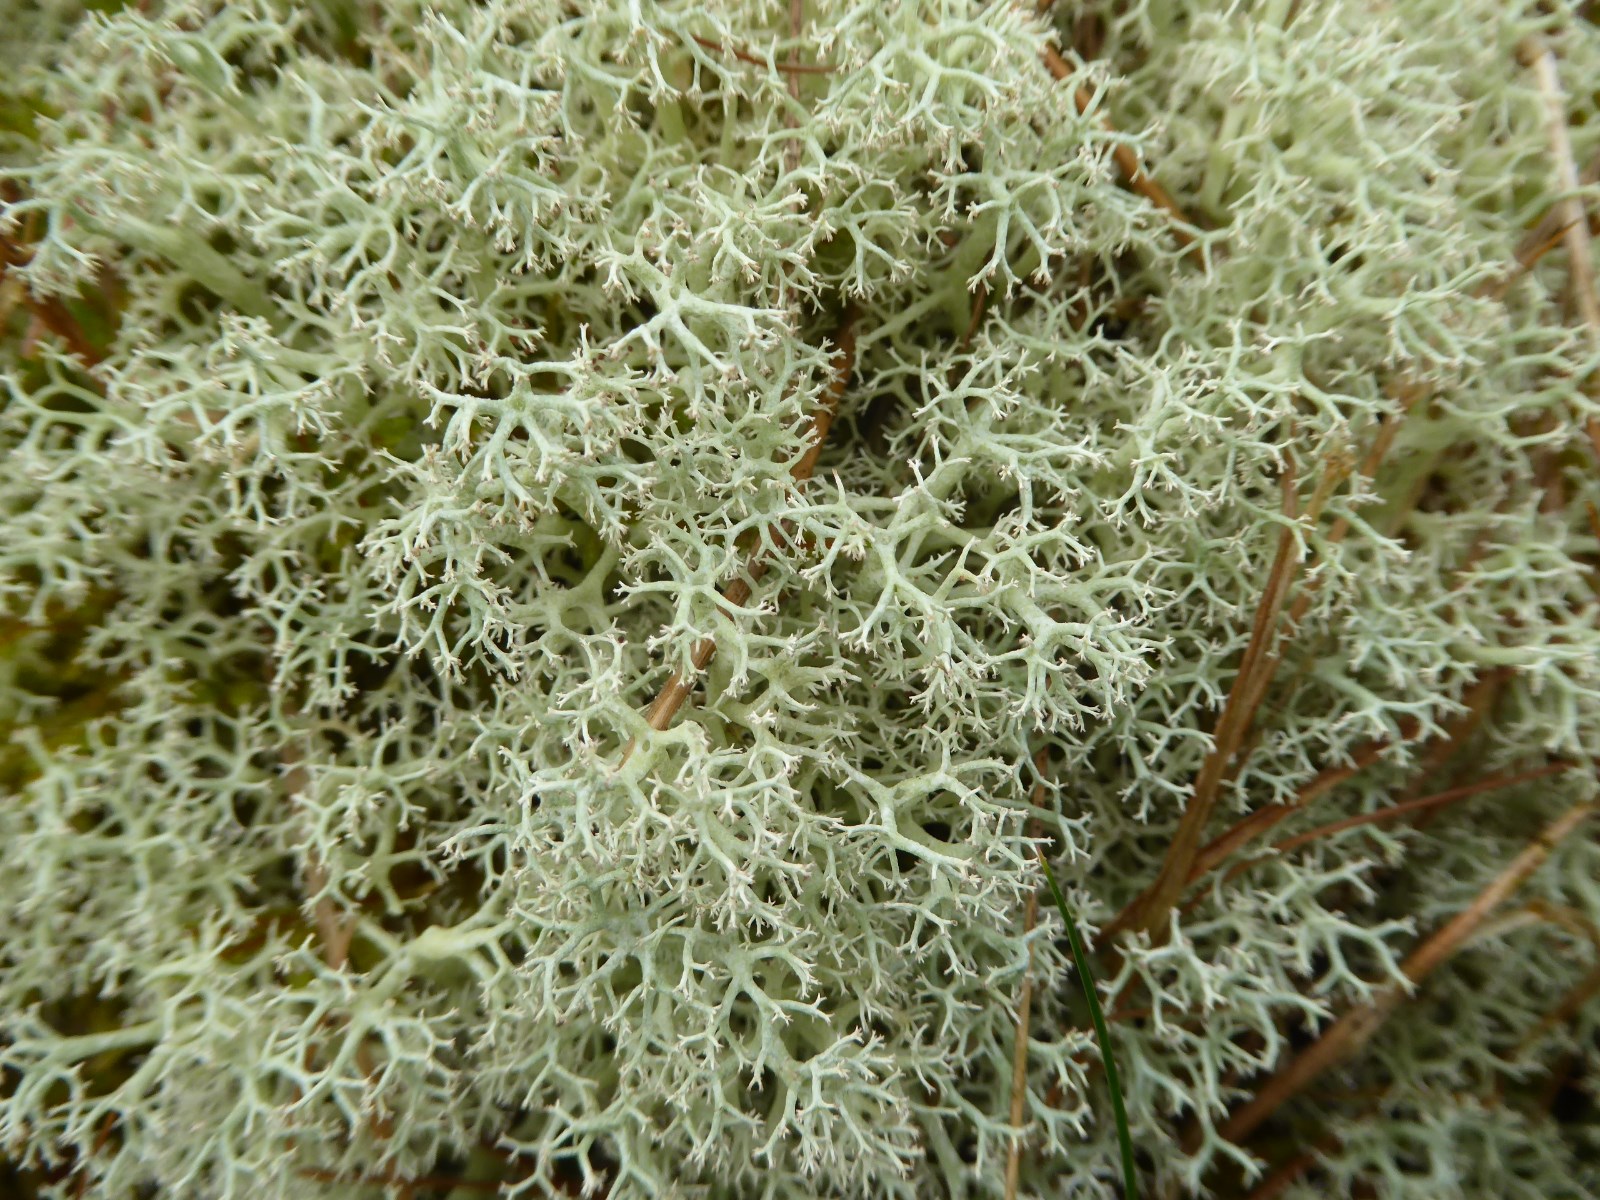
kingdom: Fungi
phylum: Ascomycota
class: Lecanoromycetes
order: Lecanorales
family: Cladoniaceae
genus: Cladonia
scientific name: Cladonia portentosa
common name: hede-rensdyrlav
